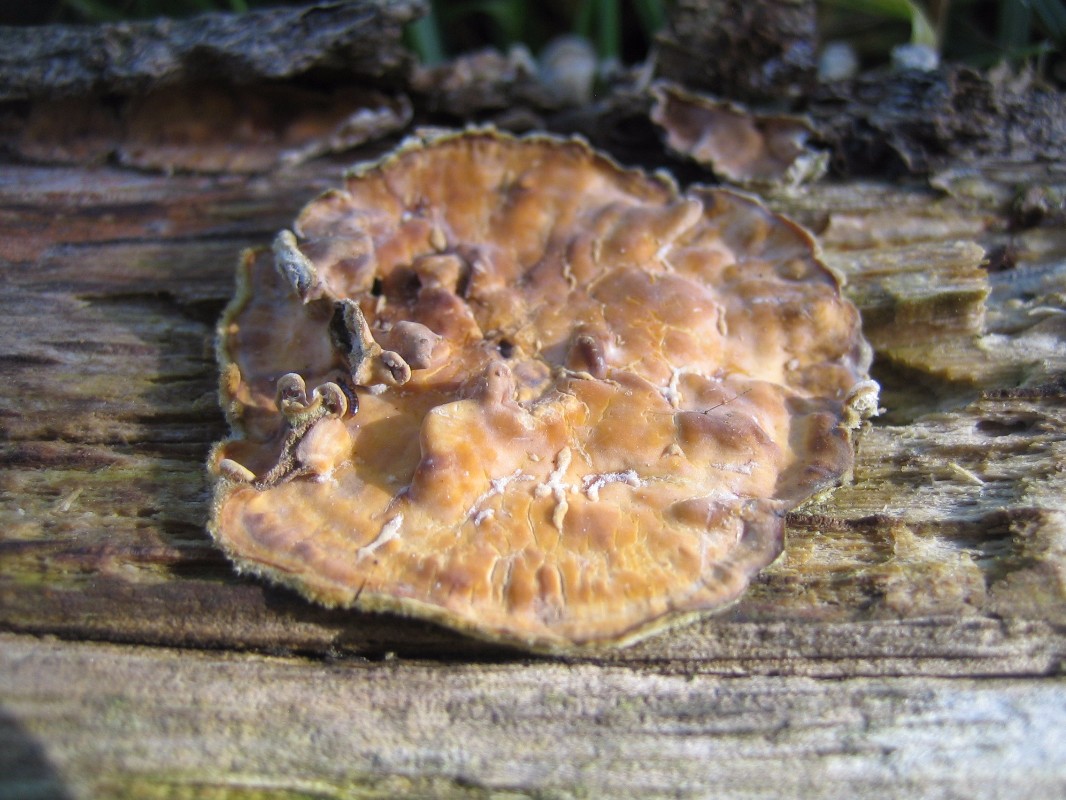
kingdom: Fungi
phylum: Basidiomycota
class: Agaricomycetes
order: Russulales
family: Stereaceae
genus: Stereum
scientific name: Stereum
